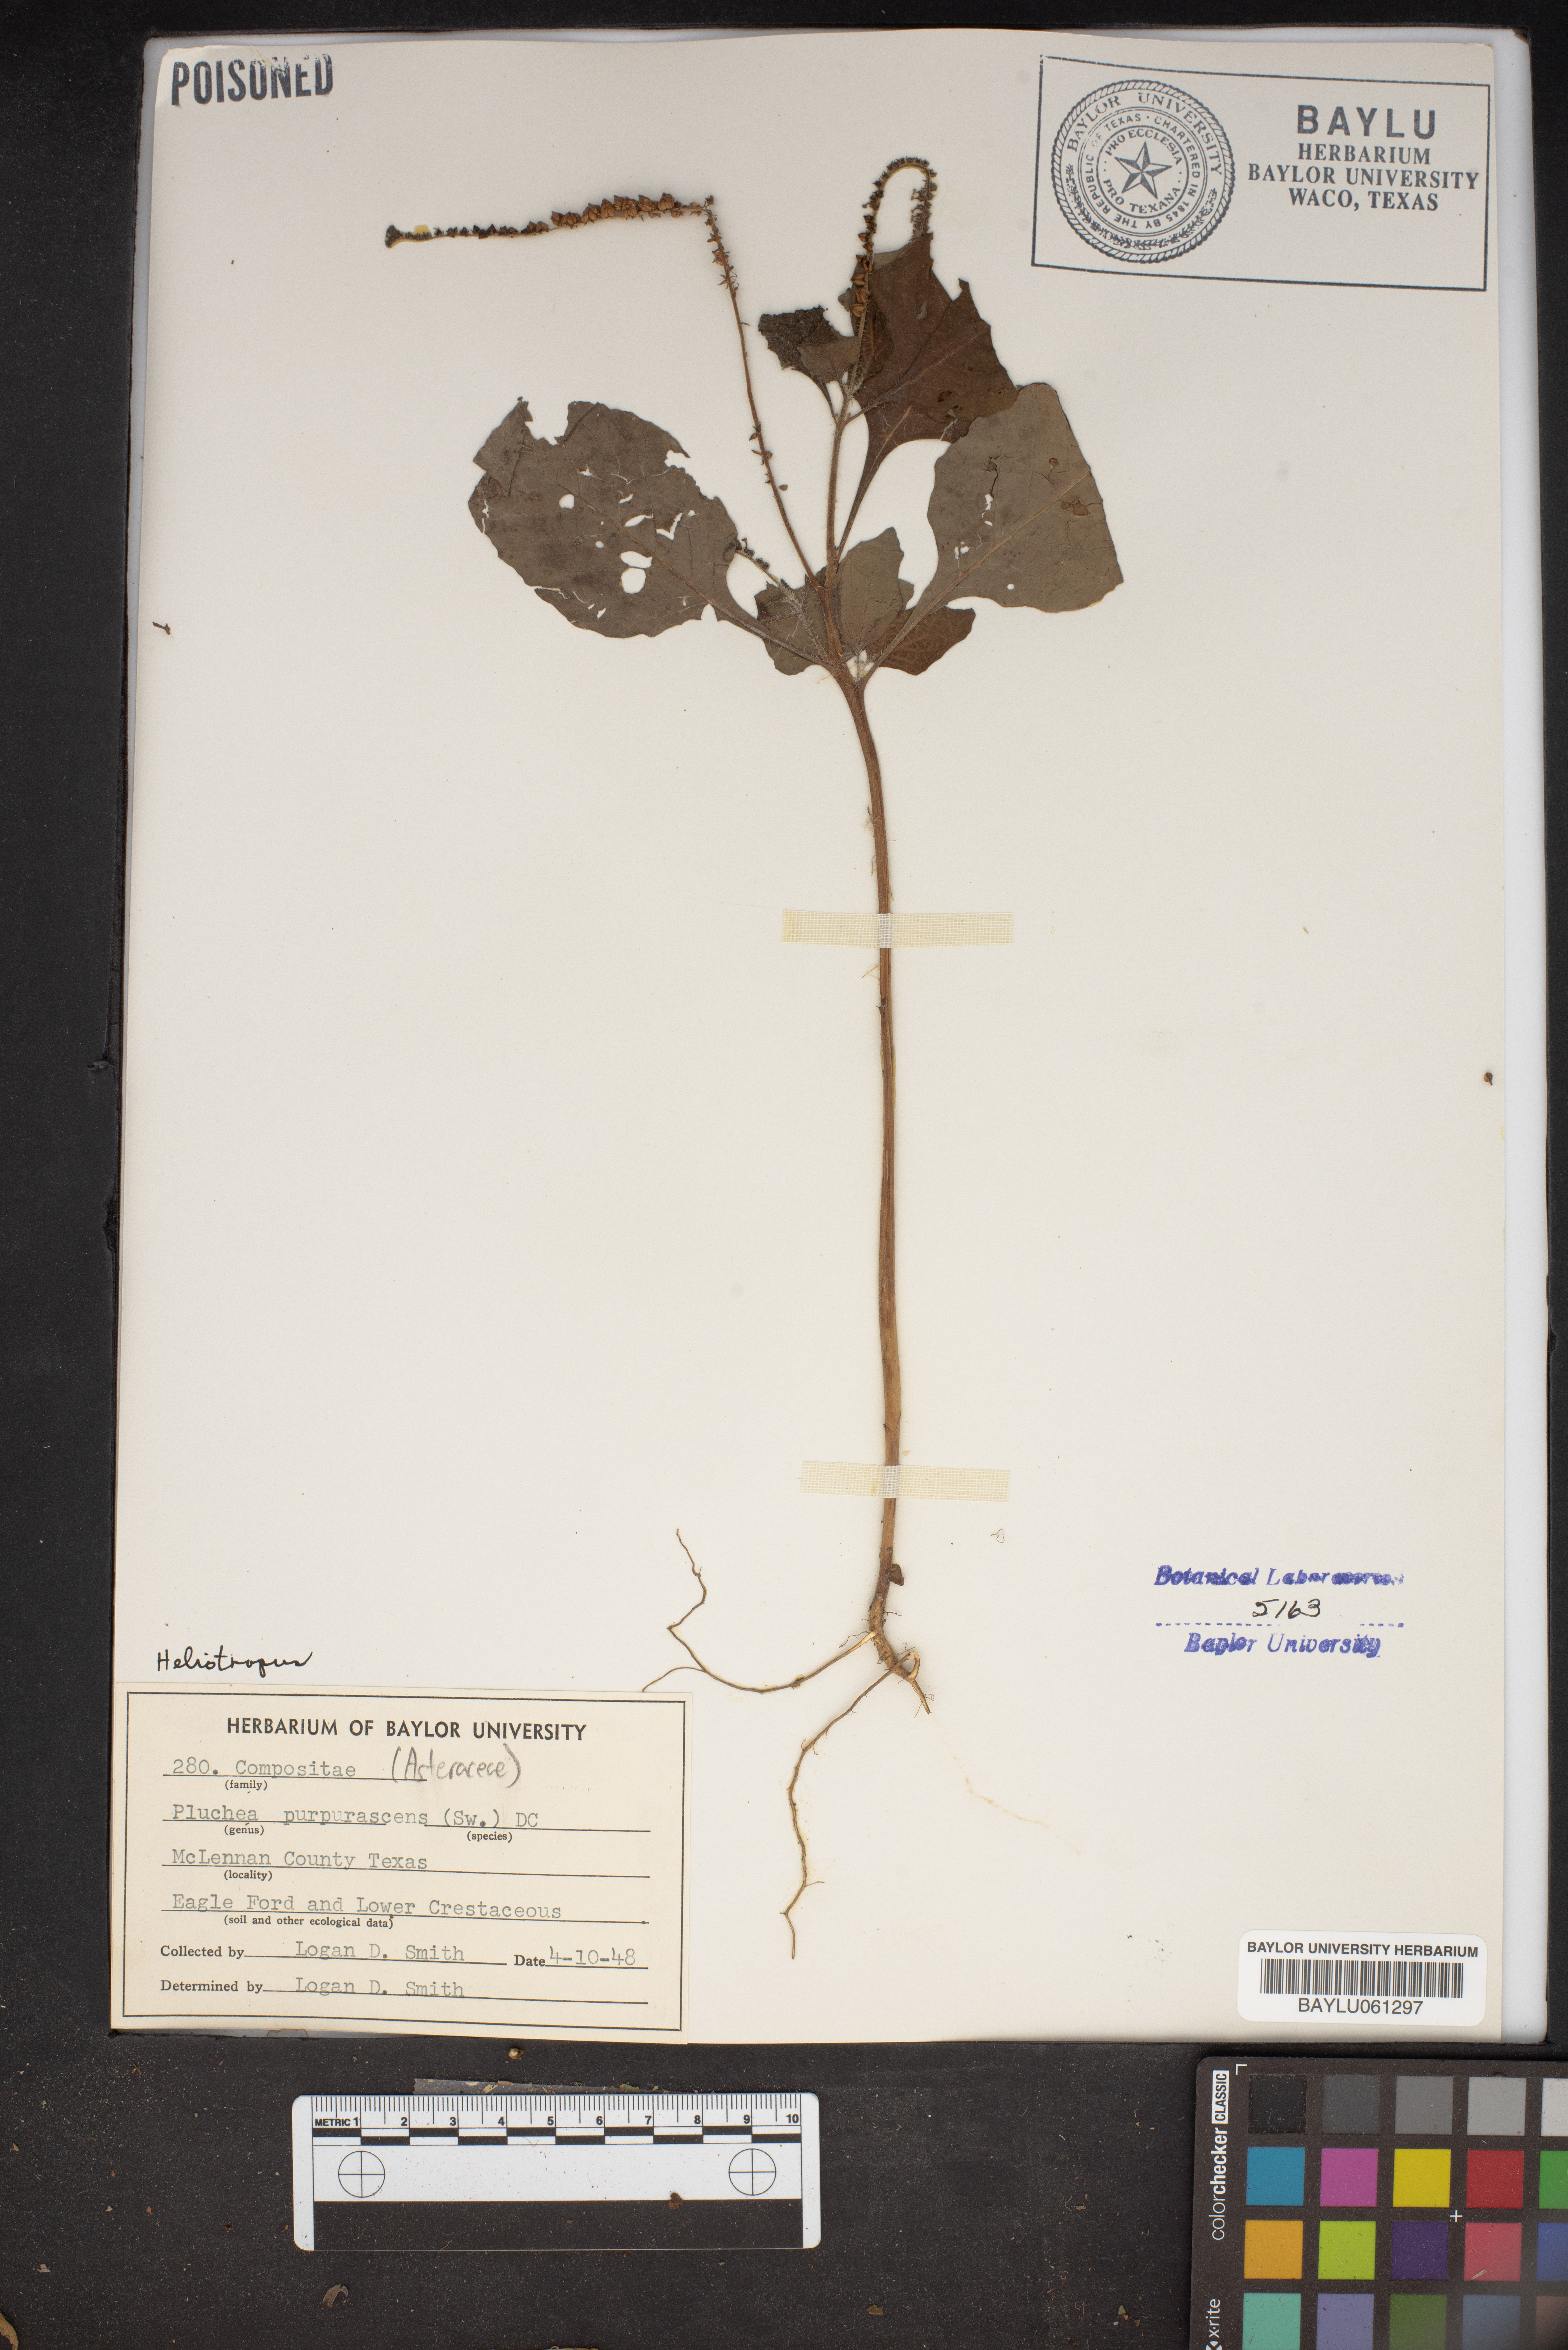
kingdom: Plantae
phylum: Tracheophyta
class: Magnoliopsida
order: Asterales
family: Asteraceae
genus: Pluchea
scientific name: Pluchea odorata
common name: Saltmarsh fleabane
